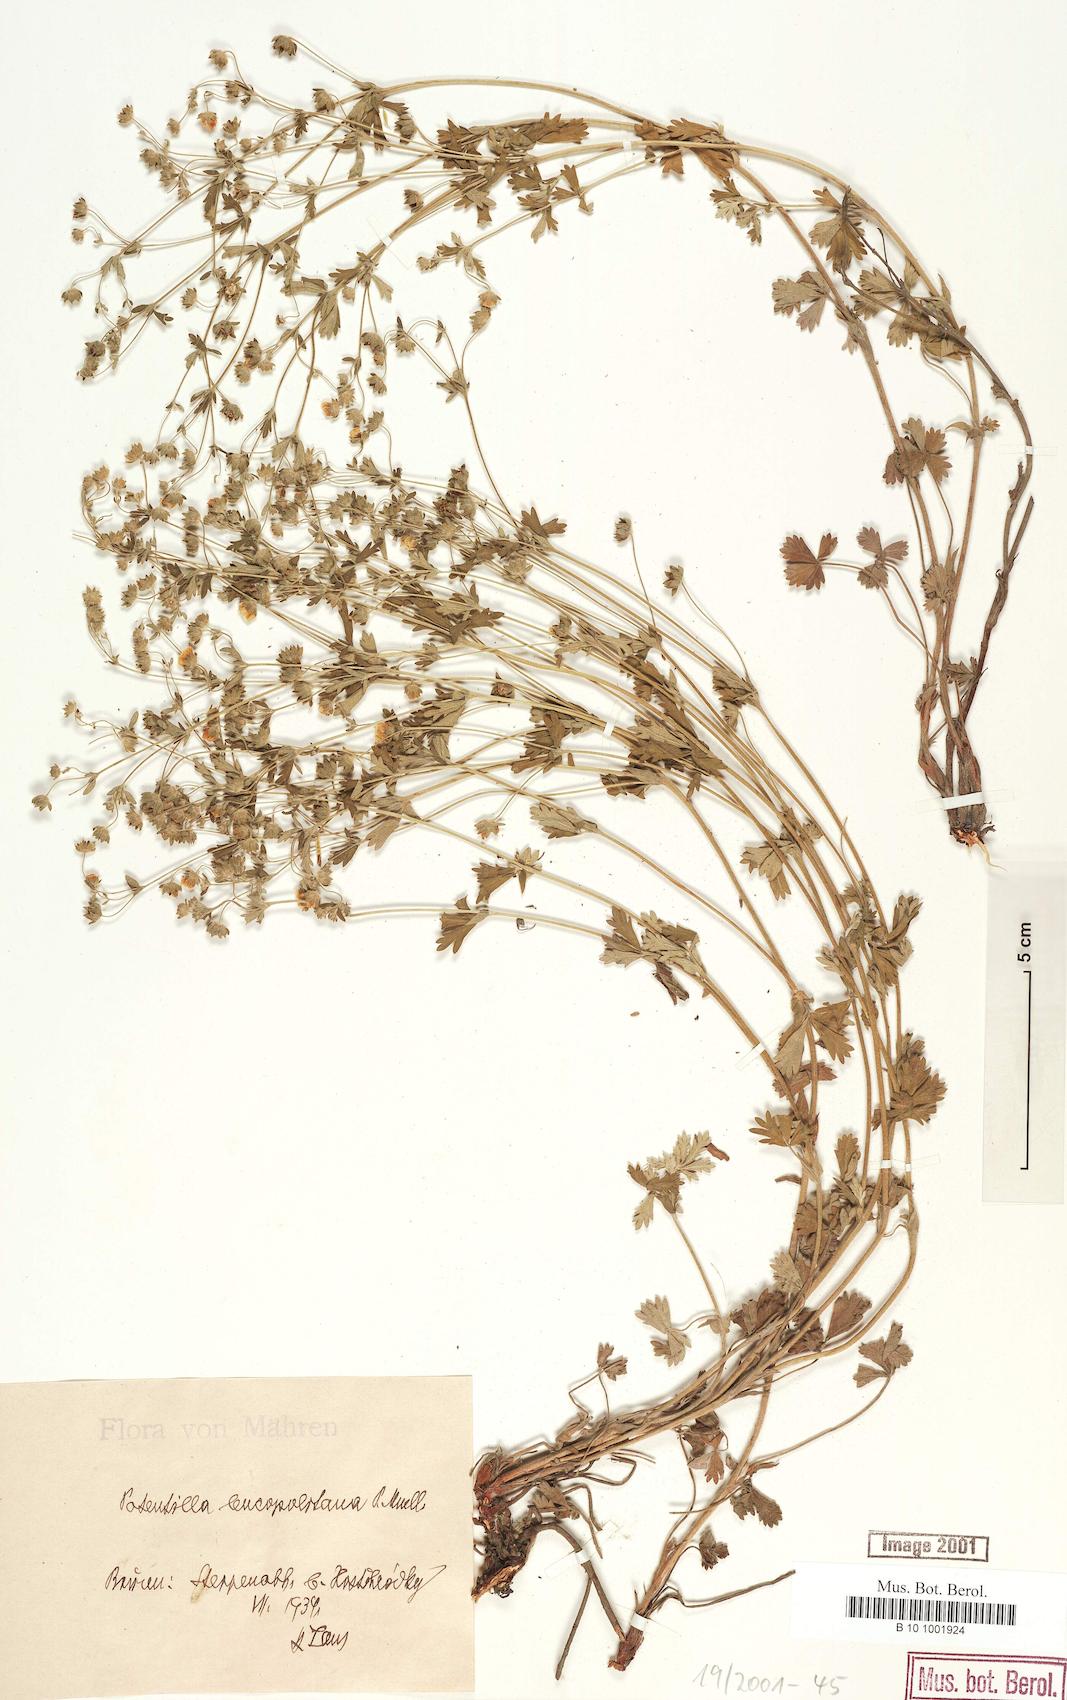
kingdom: Plantae
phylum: Tracheophyta
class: Magnoliopsida
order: Rosales
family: Rosaceae
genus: Potentilla
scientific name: Potentilla brachyloba
